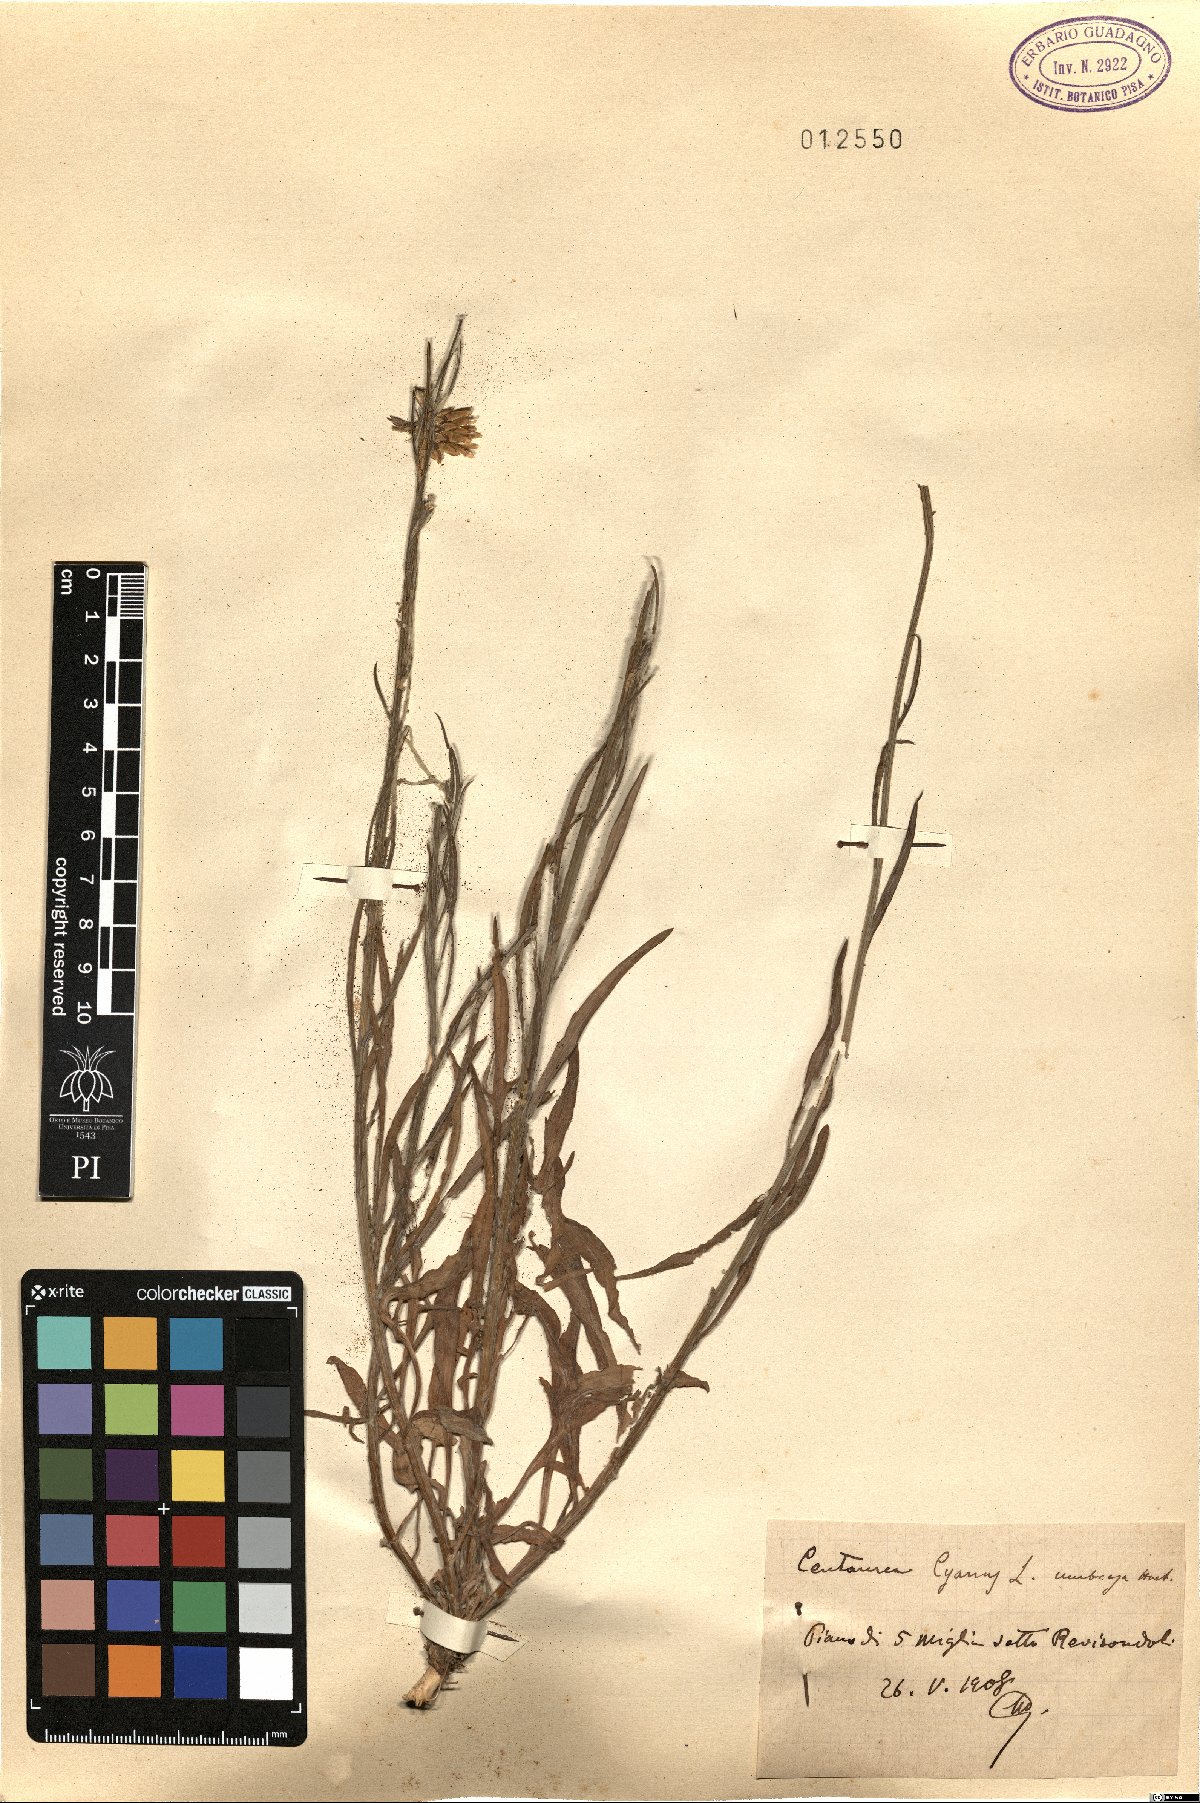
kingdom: Plantae
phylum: Tracheophyta
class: Magnoliopsida
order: Asterales
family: Asteraceae
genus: Centaurea
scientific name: Centaurea cyanus
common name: Cornflower
